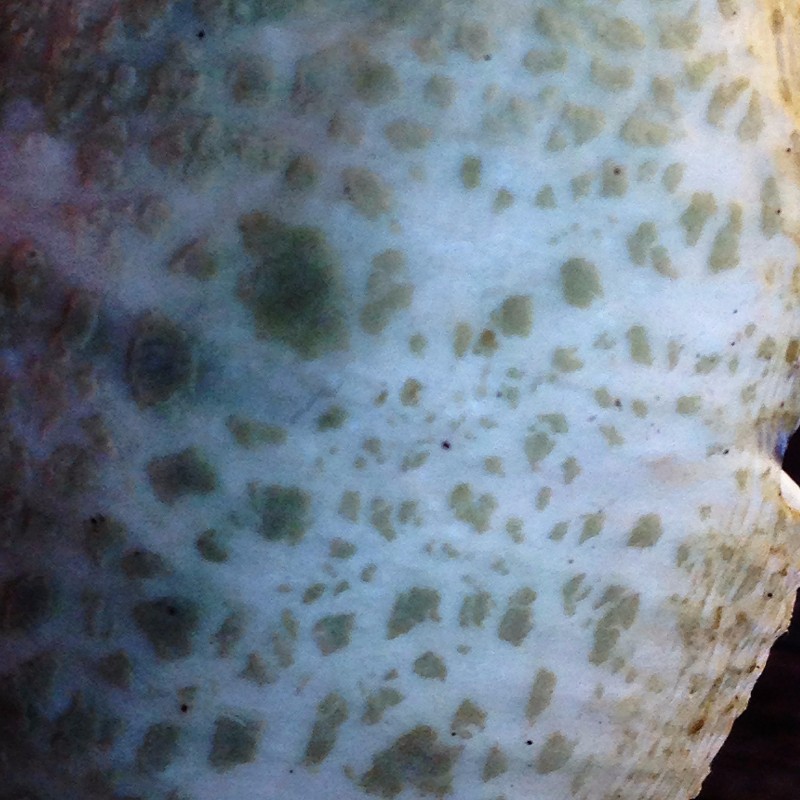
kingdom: Fungi
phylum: Basidiomycota
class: Agaricomycetes
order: Russulales
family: Russulaceae
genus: Russula
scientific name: Russula virescens
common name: spanskgrøn skørhat
